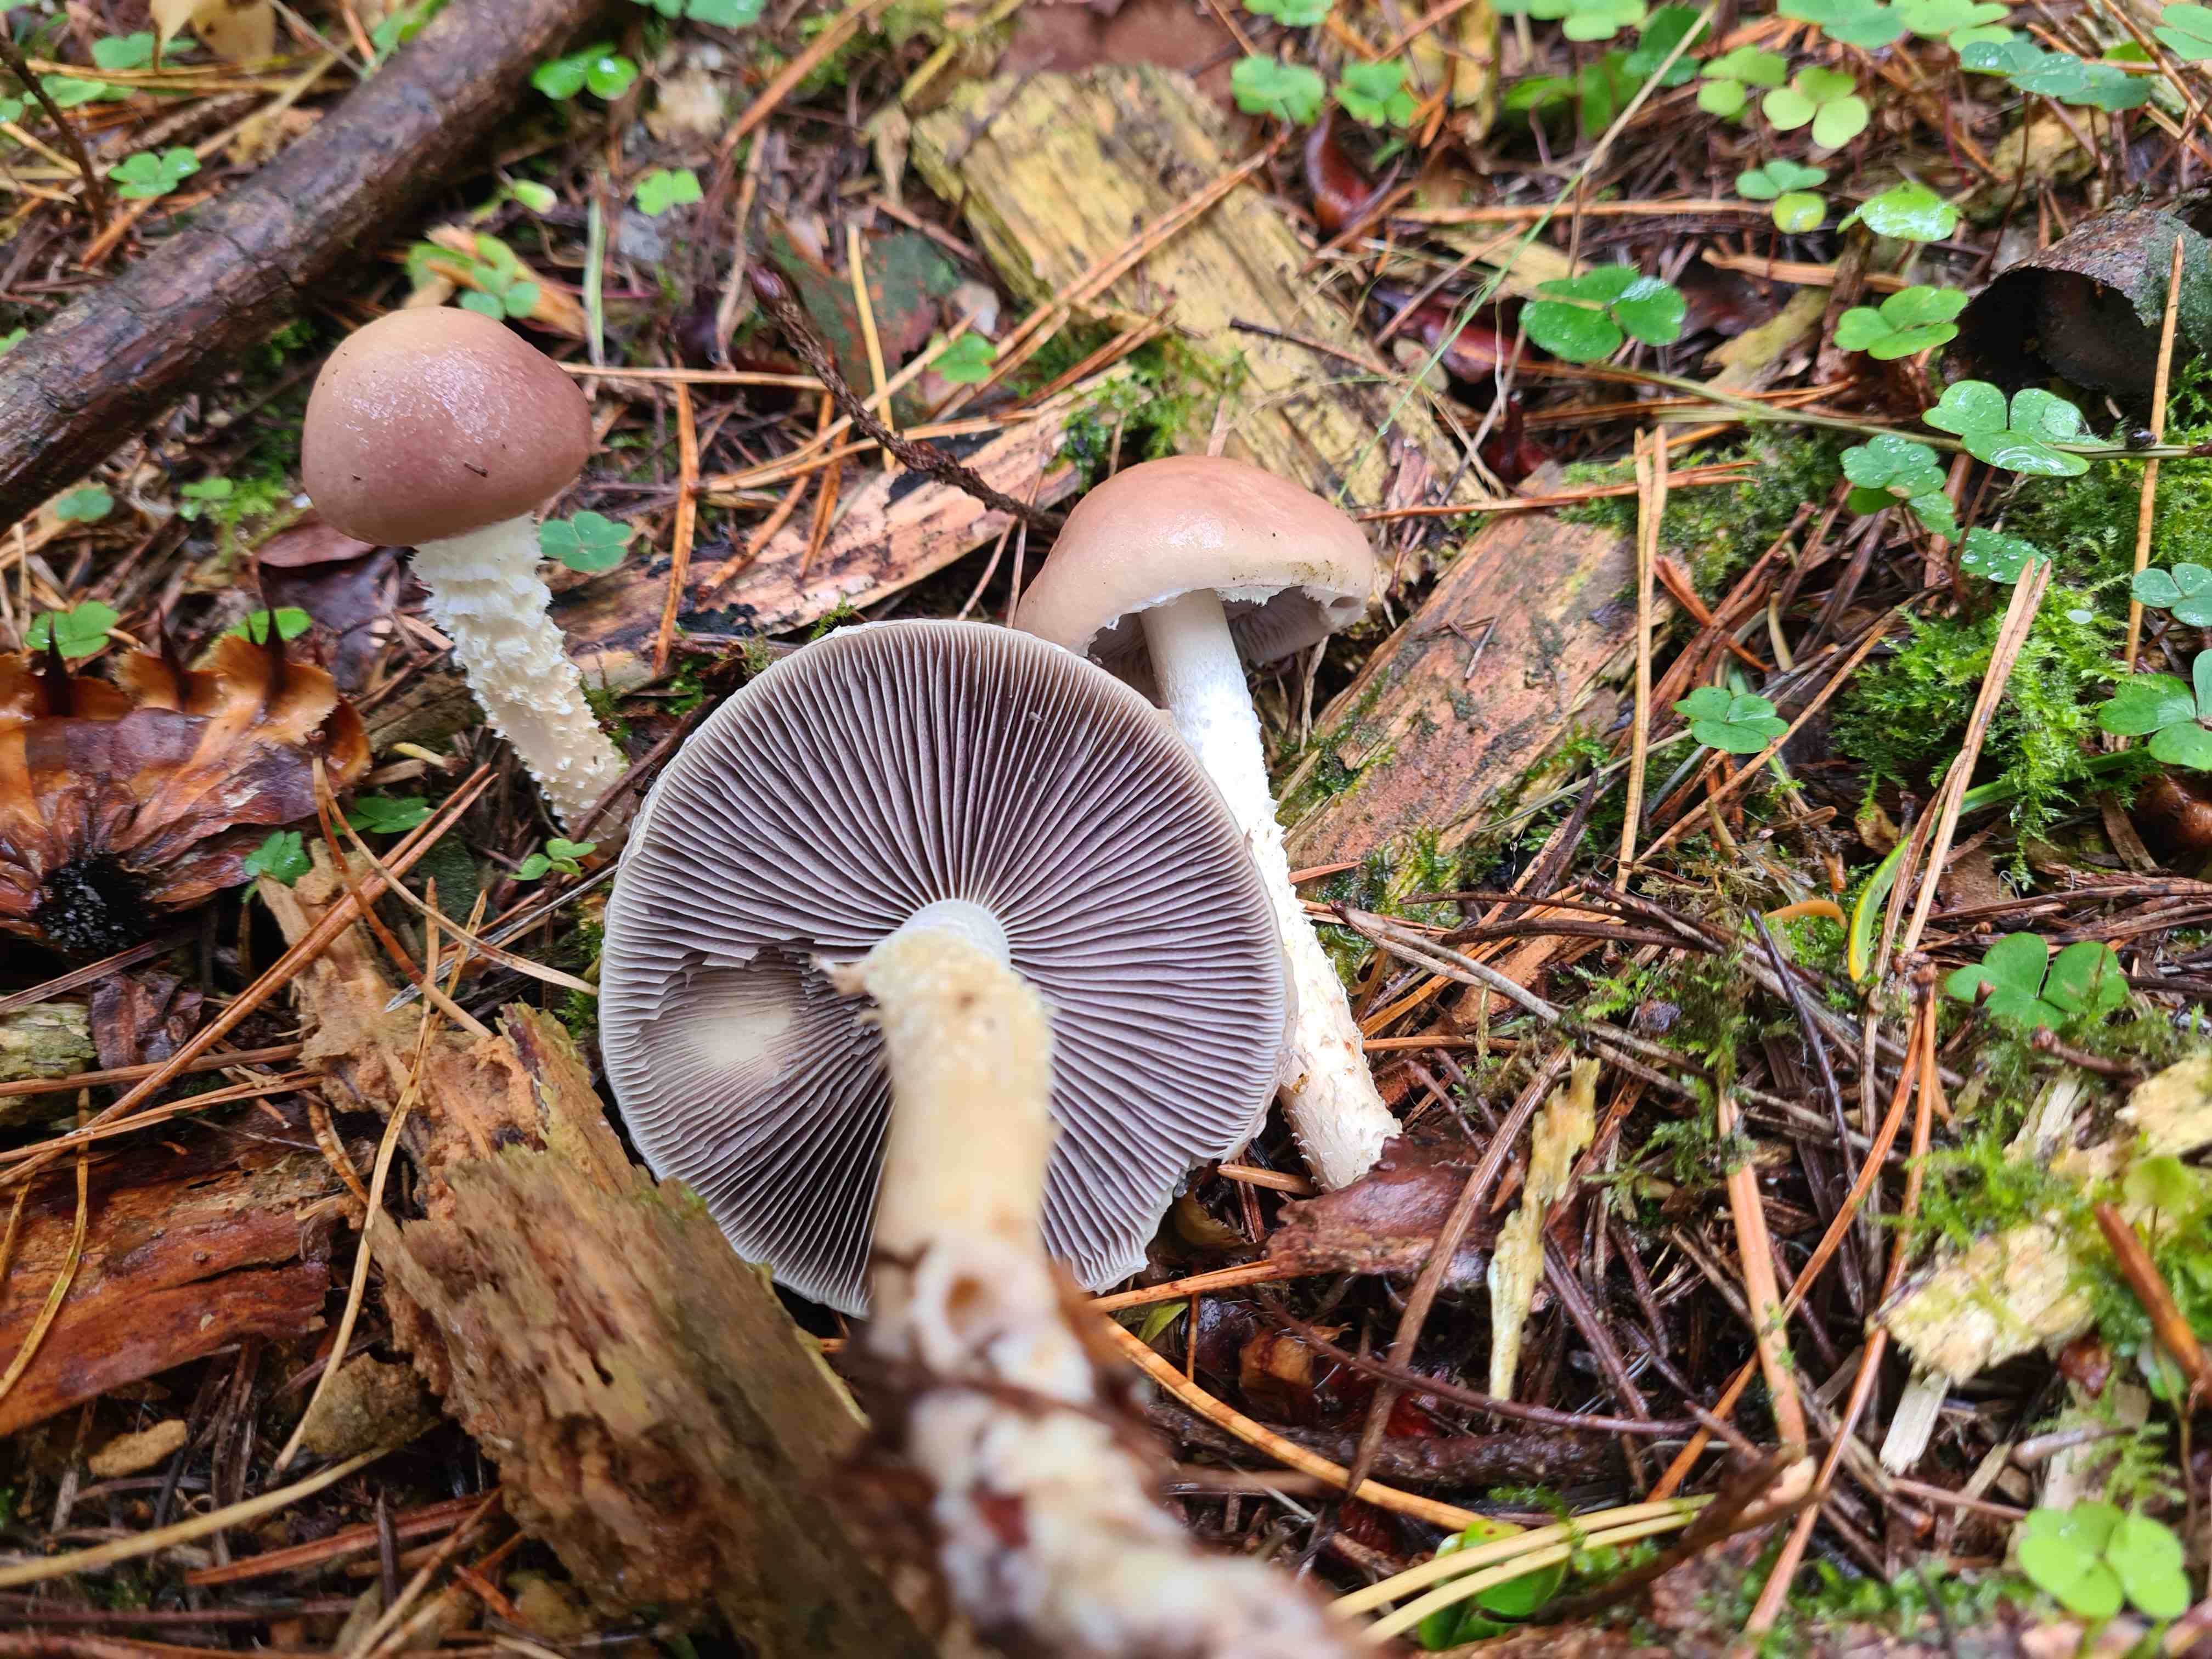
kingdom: Fungi
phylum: Basidiomycota
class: Agaricomycetes
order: Agaricales
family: Strophariaceae
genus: Stropharia
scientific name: Stropharia hornemannii
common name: nordisk bredblad
